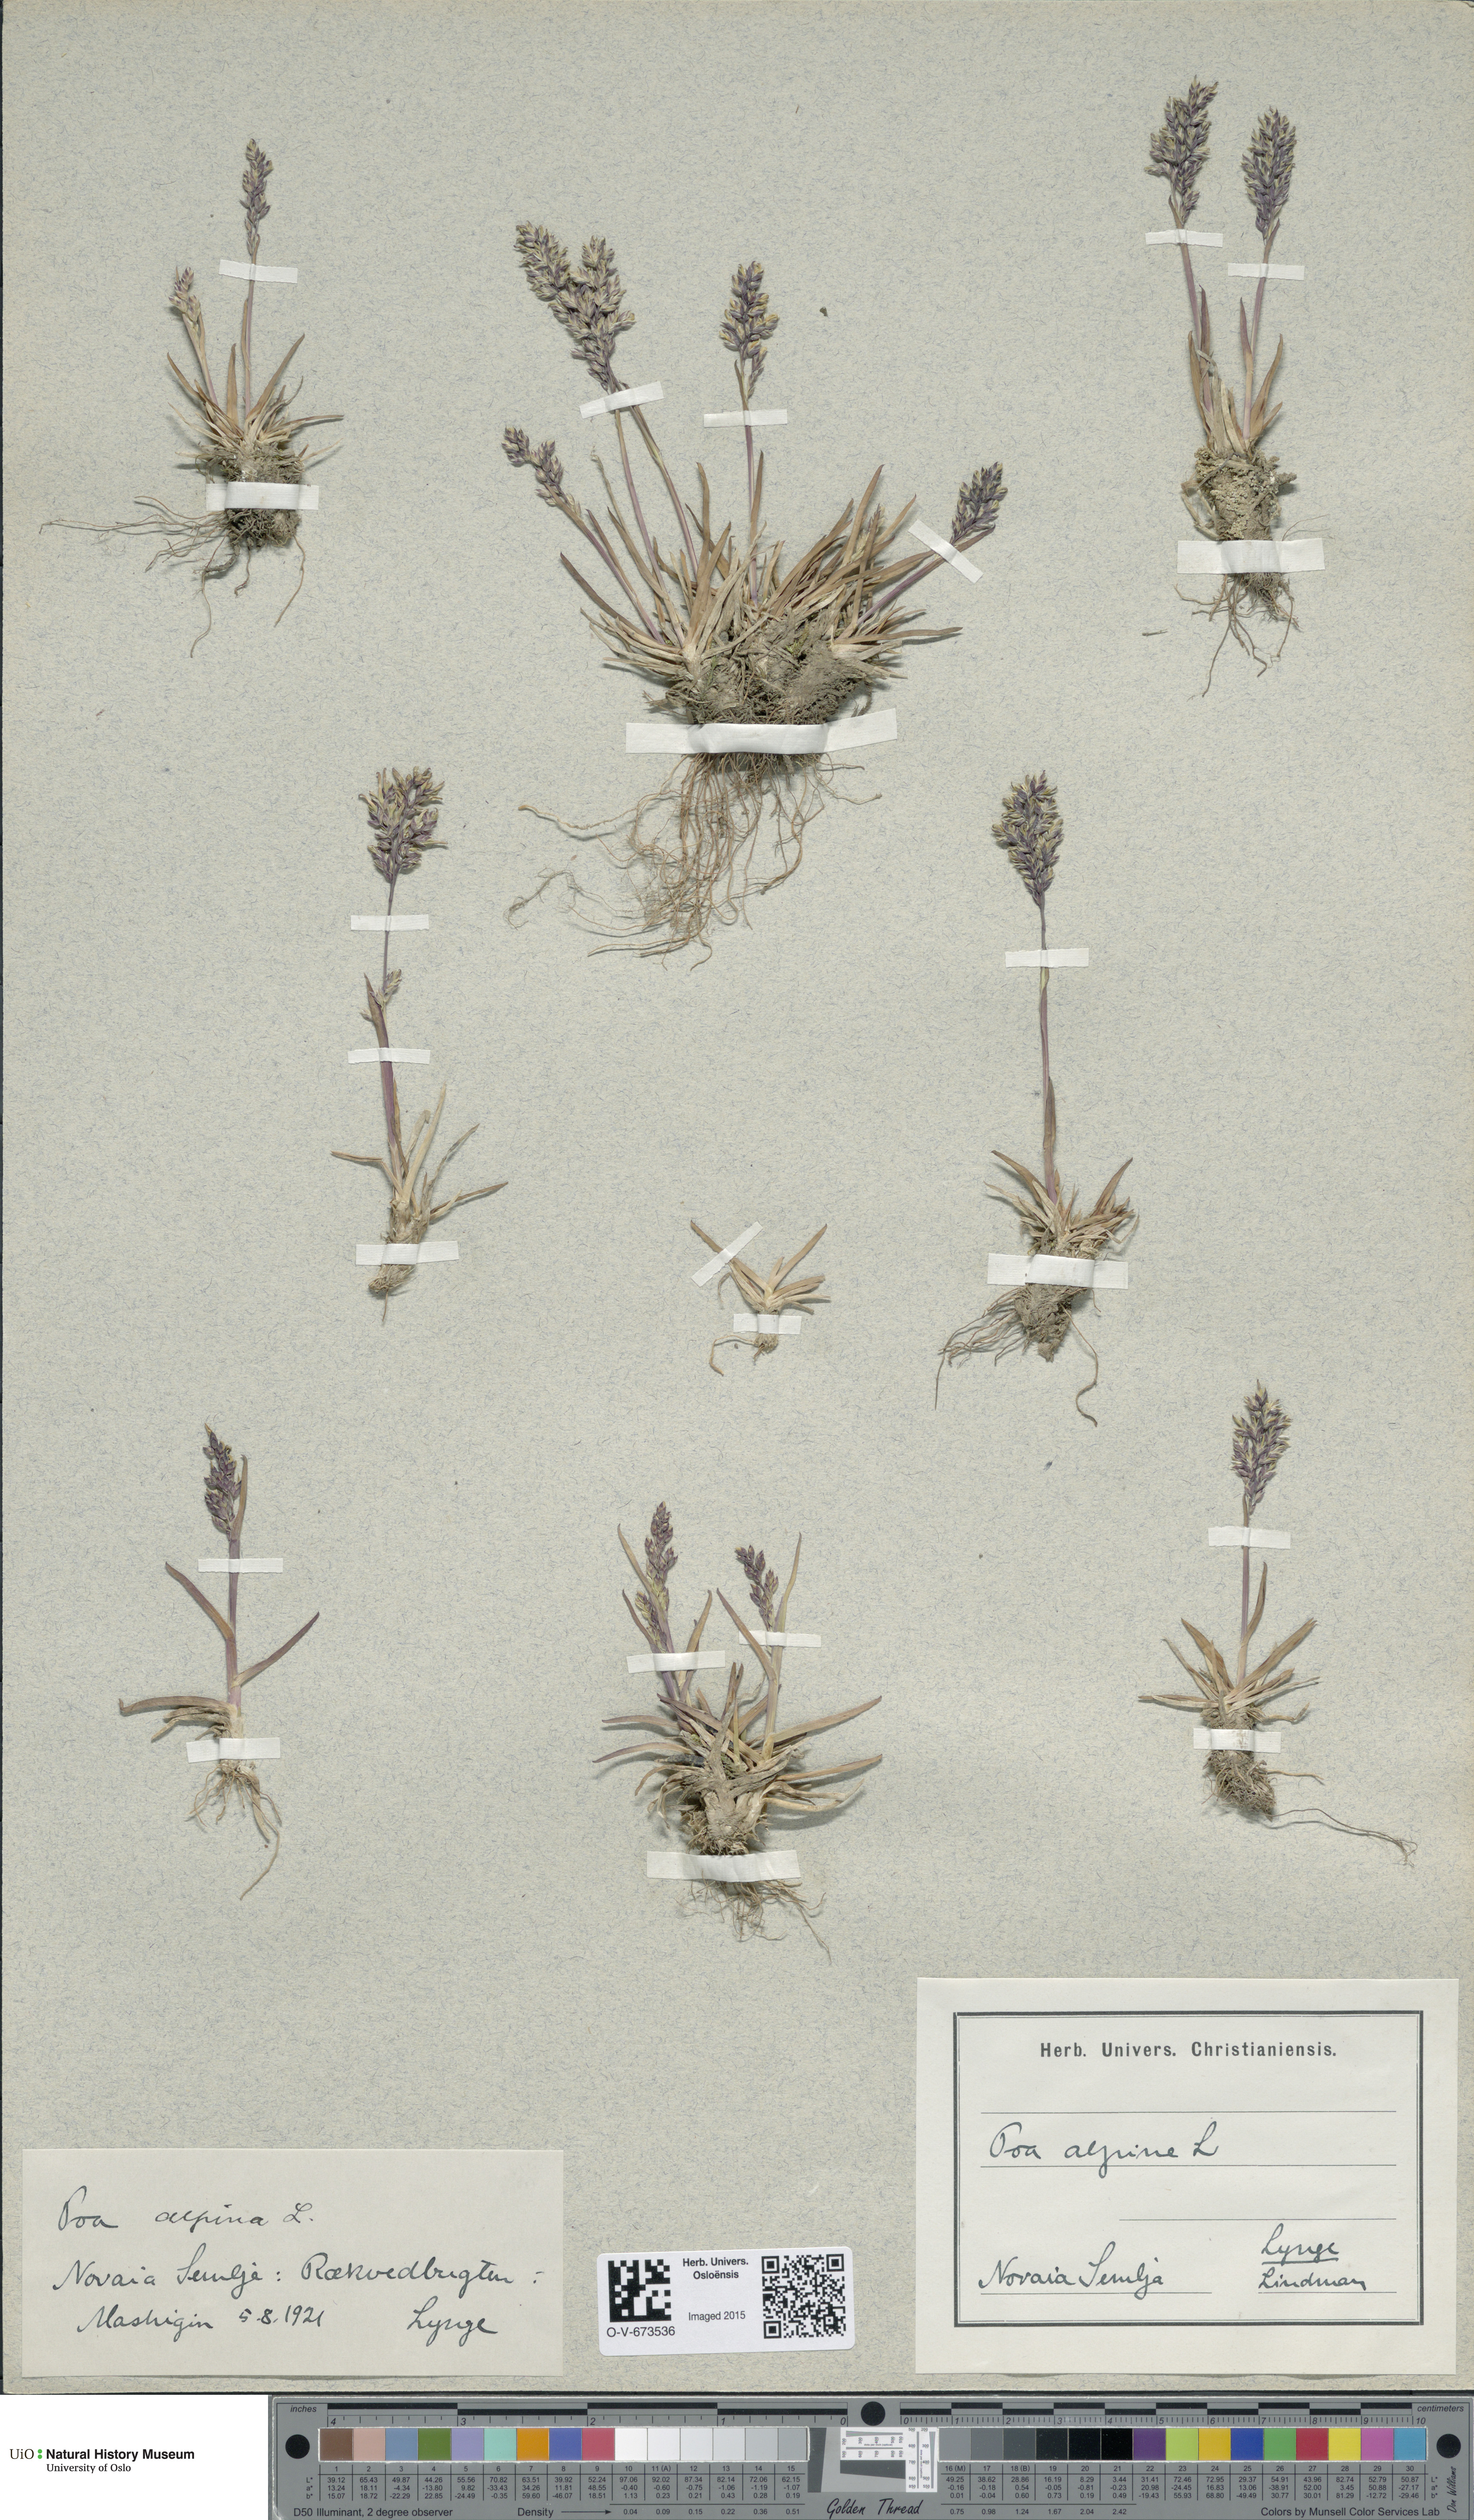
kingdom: Plantae
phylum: Tracheophyta
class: Liliopsida
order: Poales
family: Poaceae
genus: Poa
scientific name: Poa alpina
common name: Alpine bluegrass
